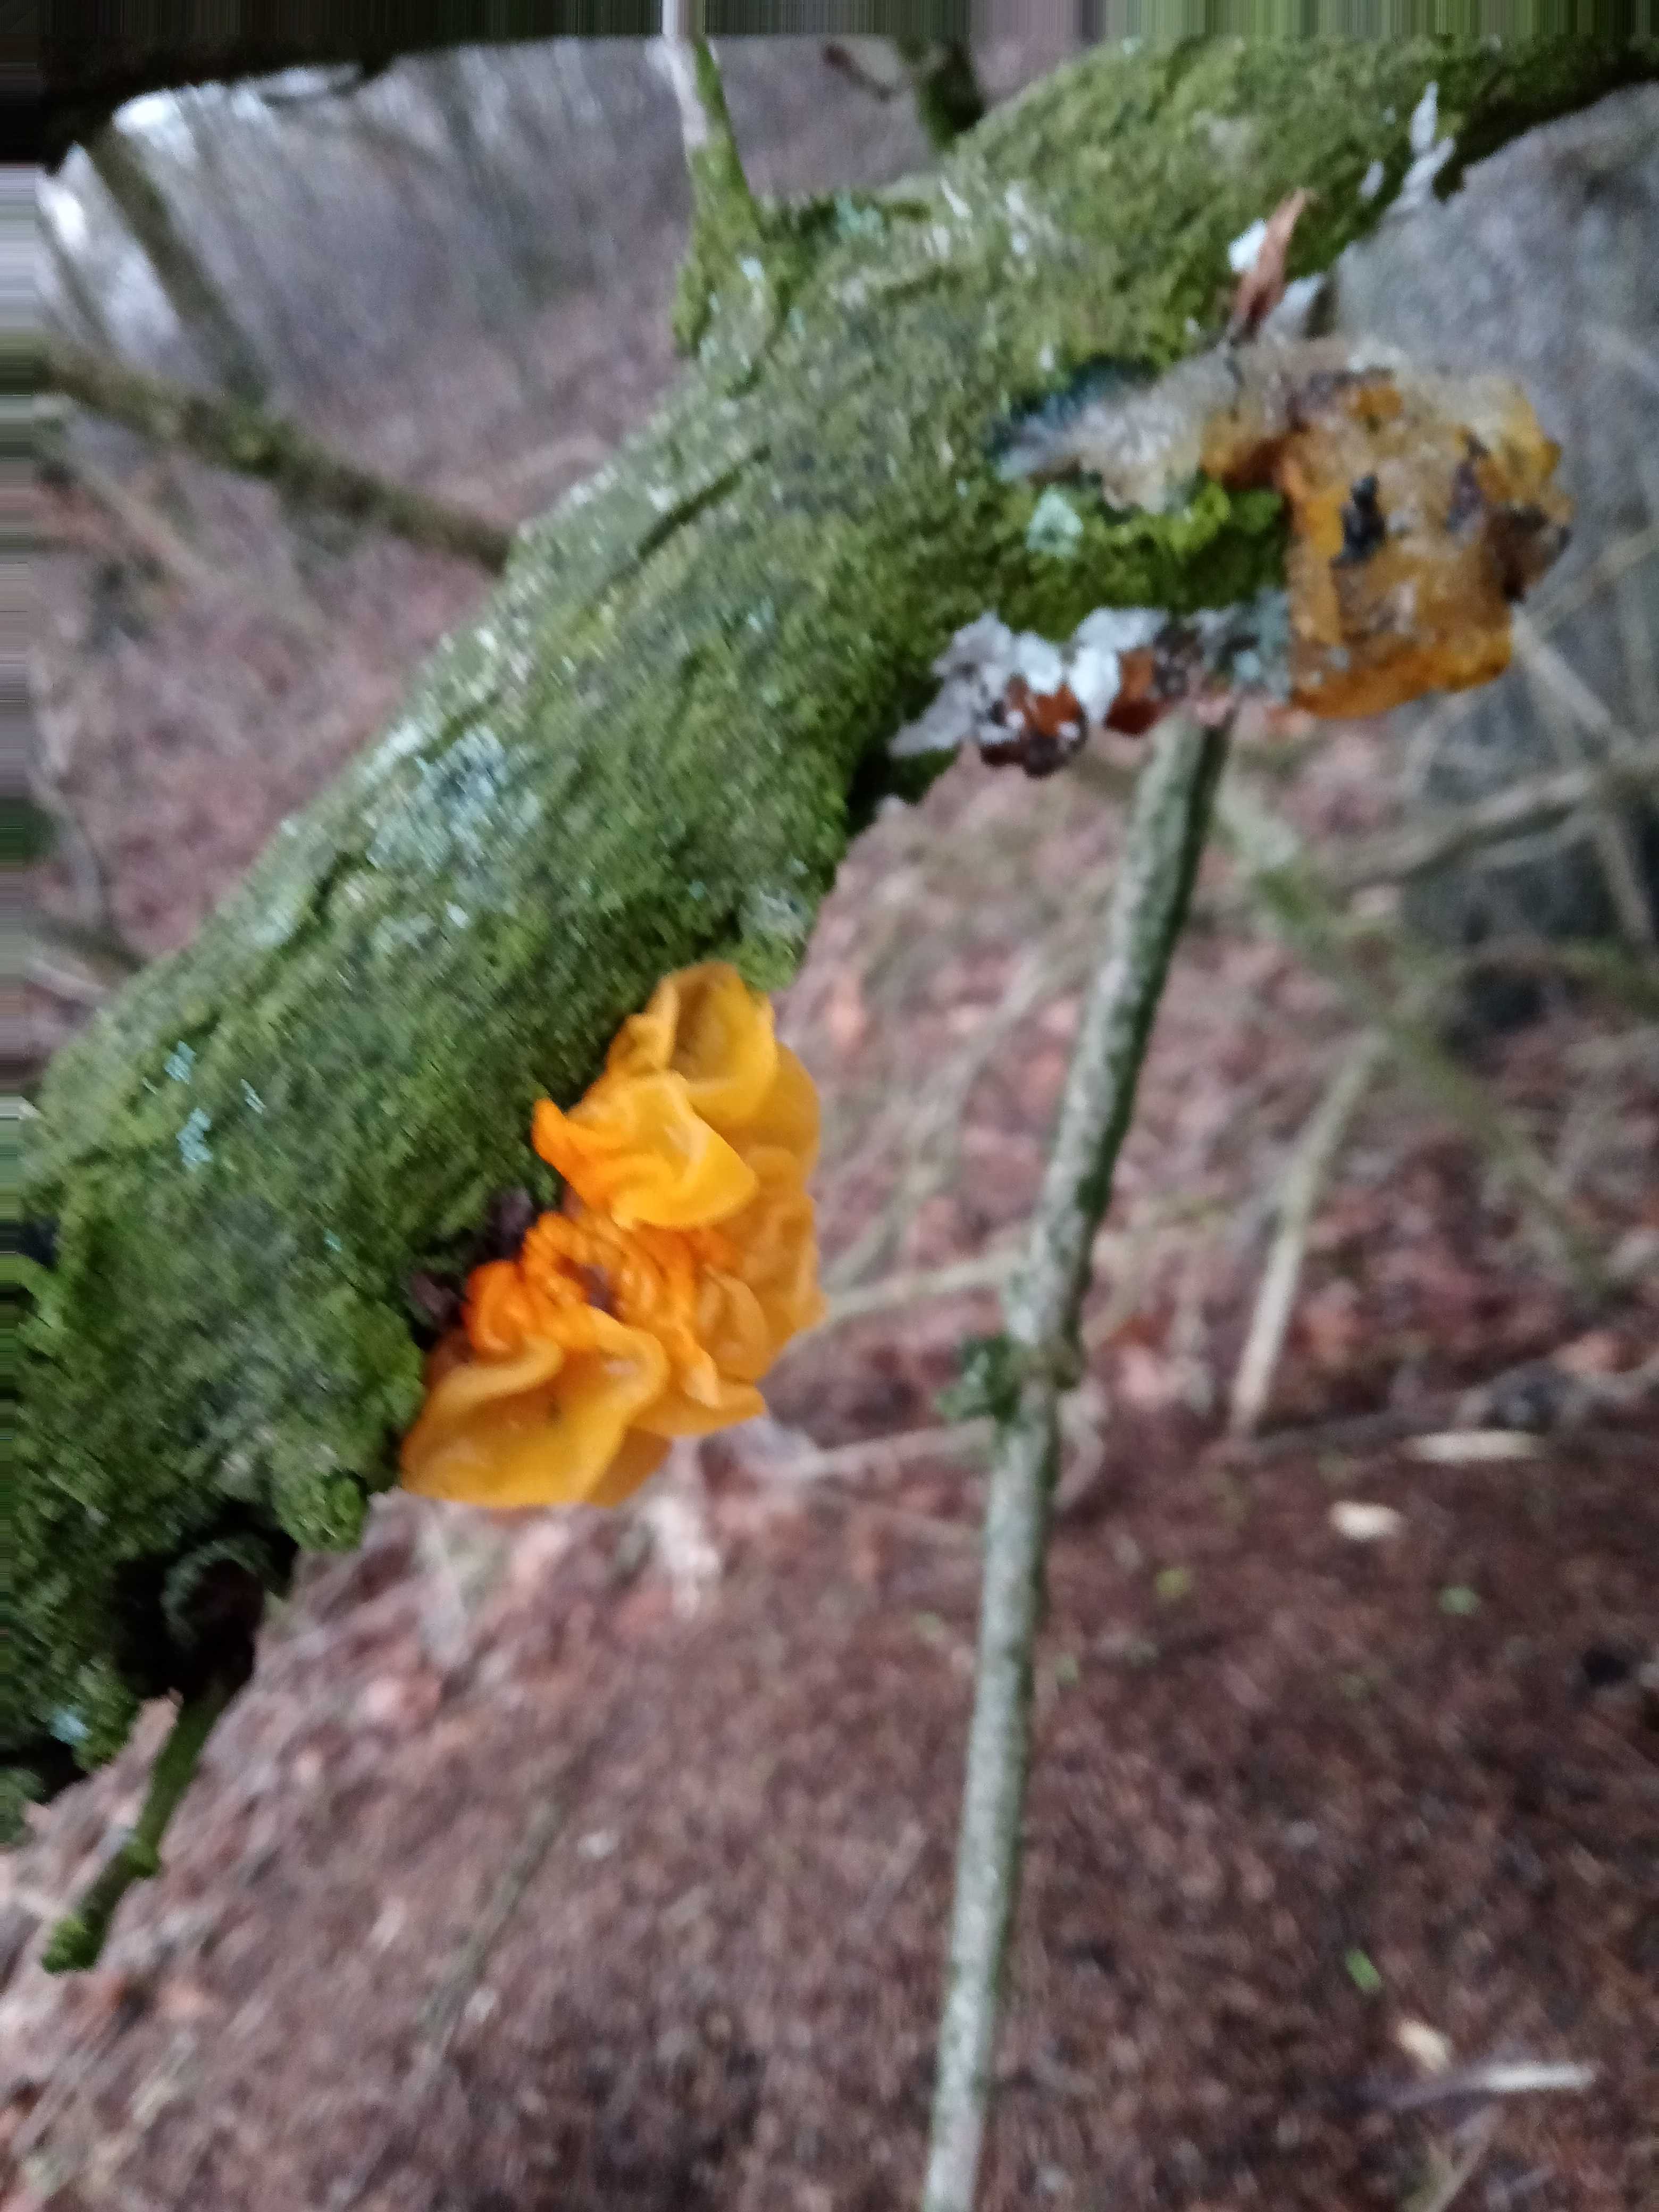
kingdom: Fungi
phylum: Basidiomycota
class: Tremellomycetes
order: Tremellales
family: Tremellaceae
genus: Tremella
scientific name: Tremella mesenterica
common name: gul bævresvamp
